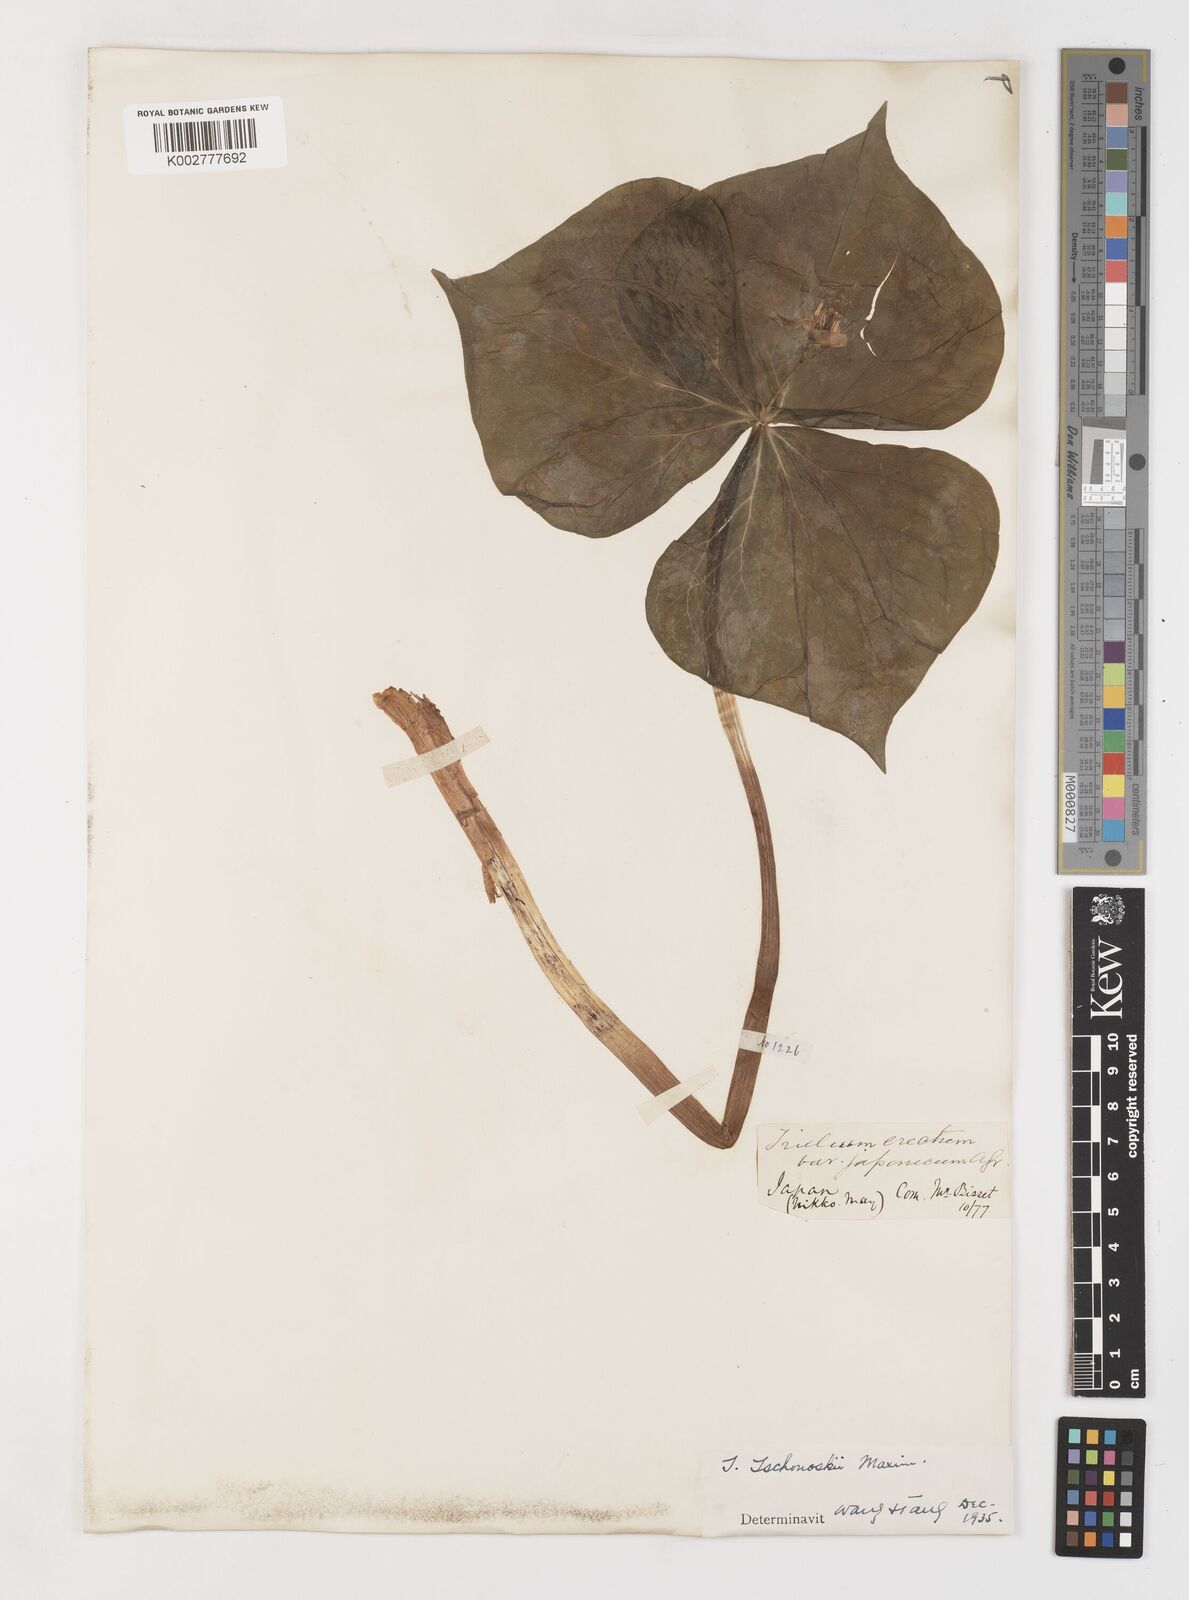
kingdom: Plantae
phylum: Tracheophyta
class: Liliopsida
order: Liliales
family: Melanthiaceae
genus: Trillium
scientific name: Trillium tschonoskii
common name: A pearl on head
